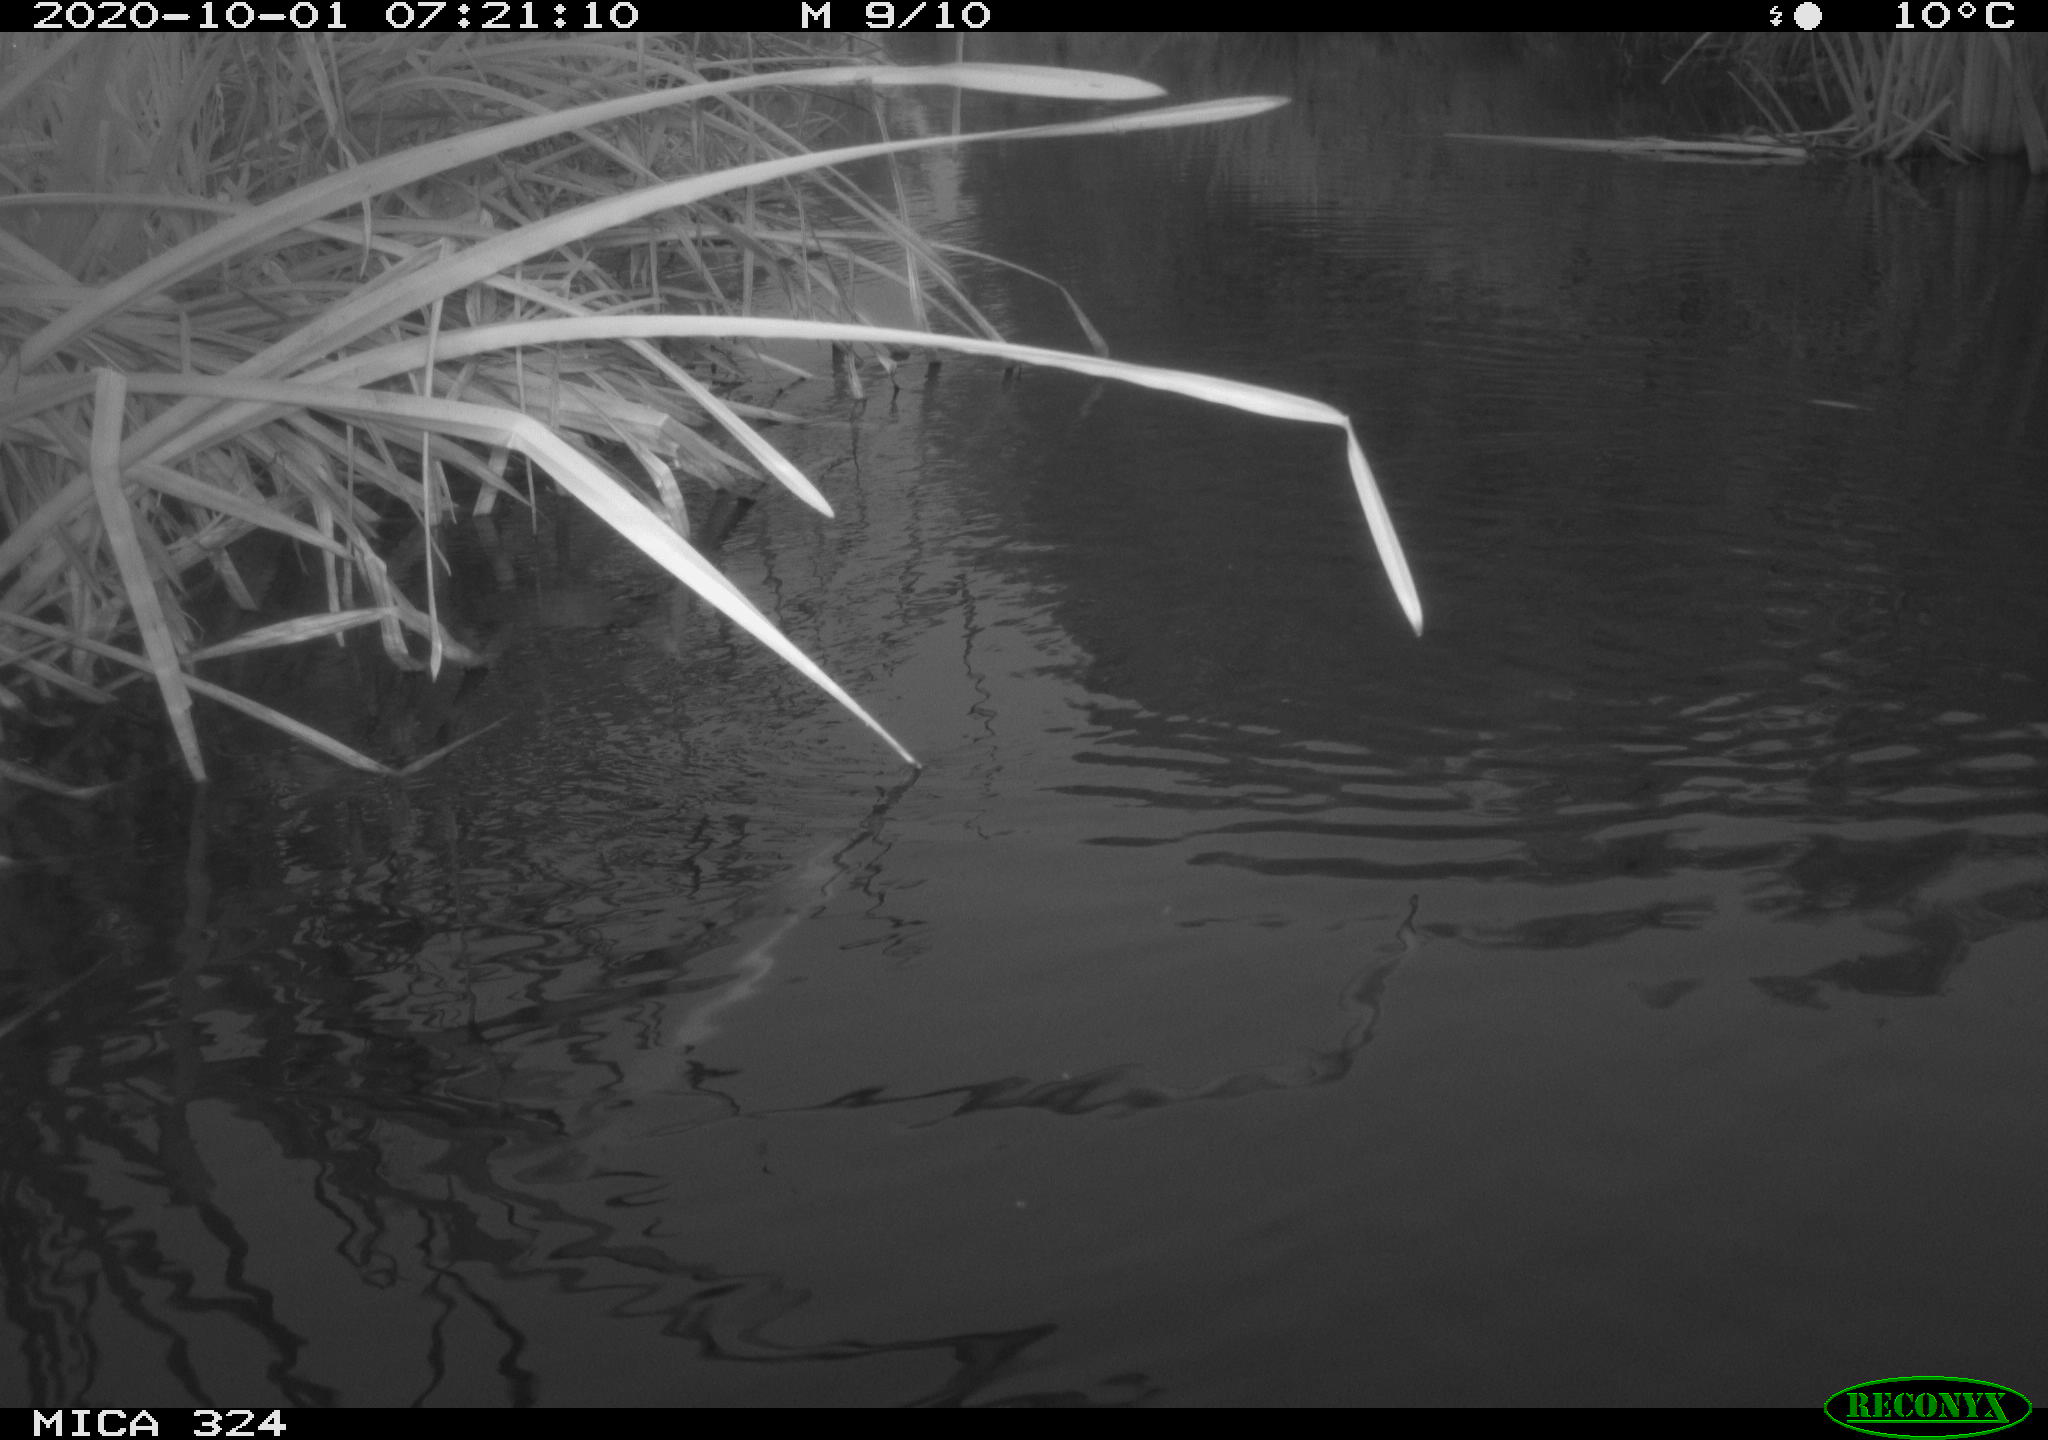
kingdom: Animalia
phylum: Chordata
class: Aves
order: Gruiformes
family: Rallidae
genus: Gallinula
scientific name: Gallinula chloropus
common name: Common moorhen
